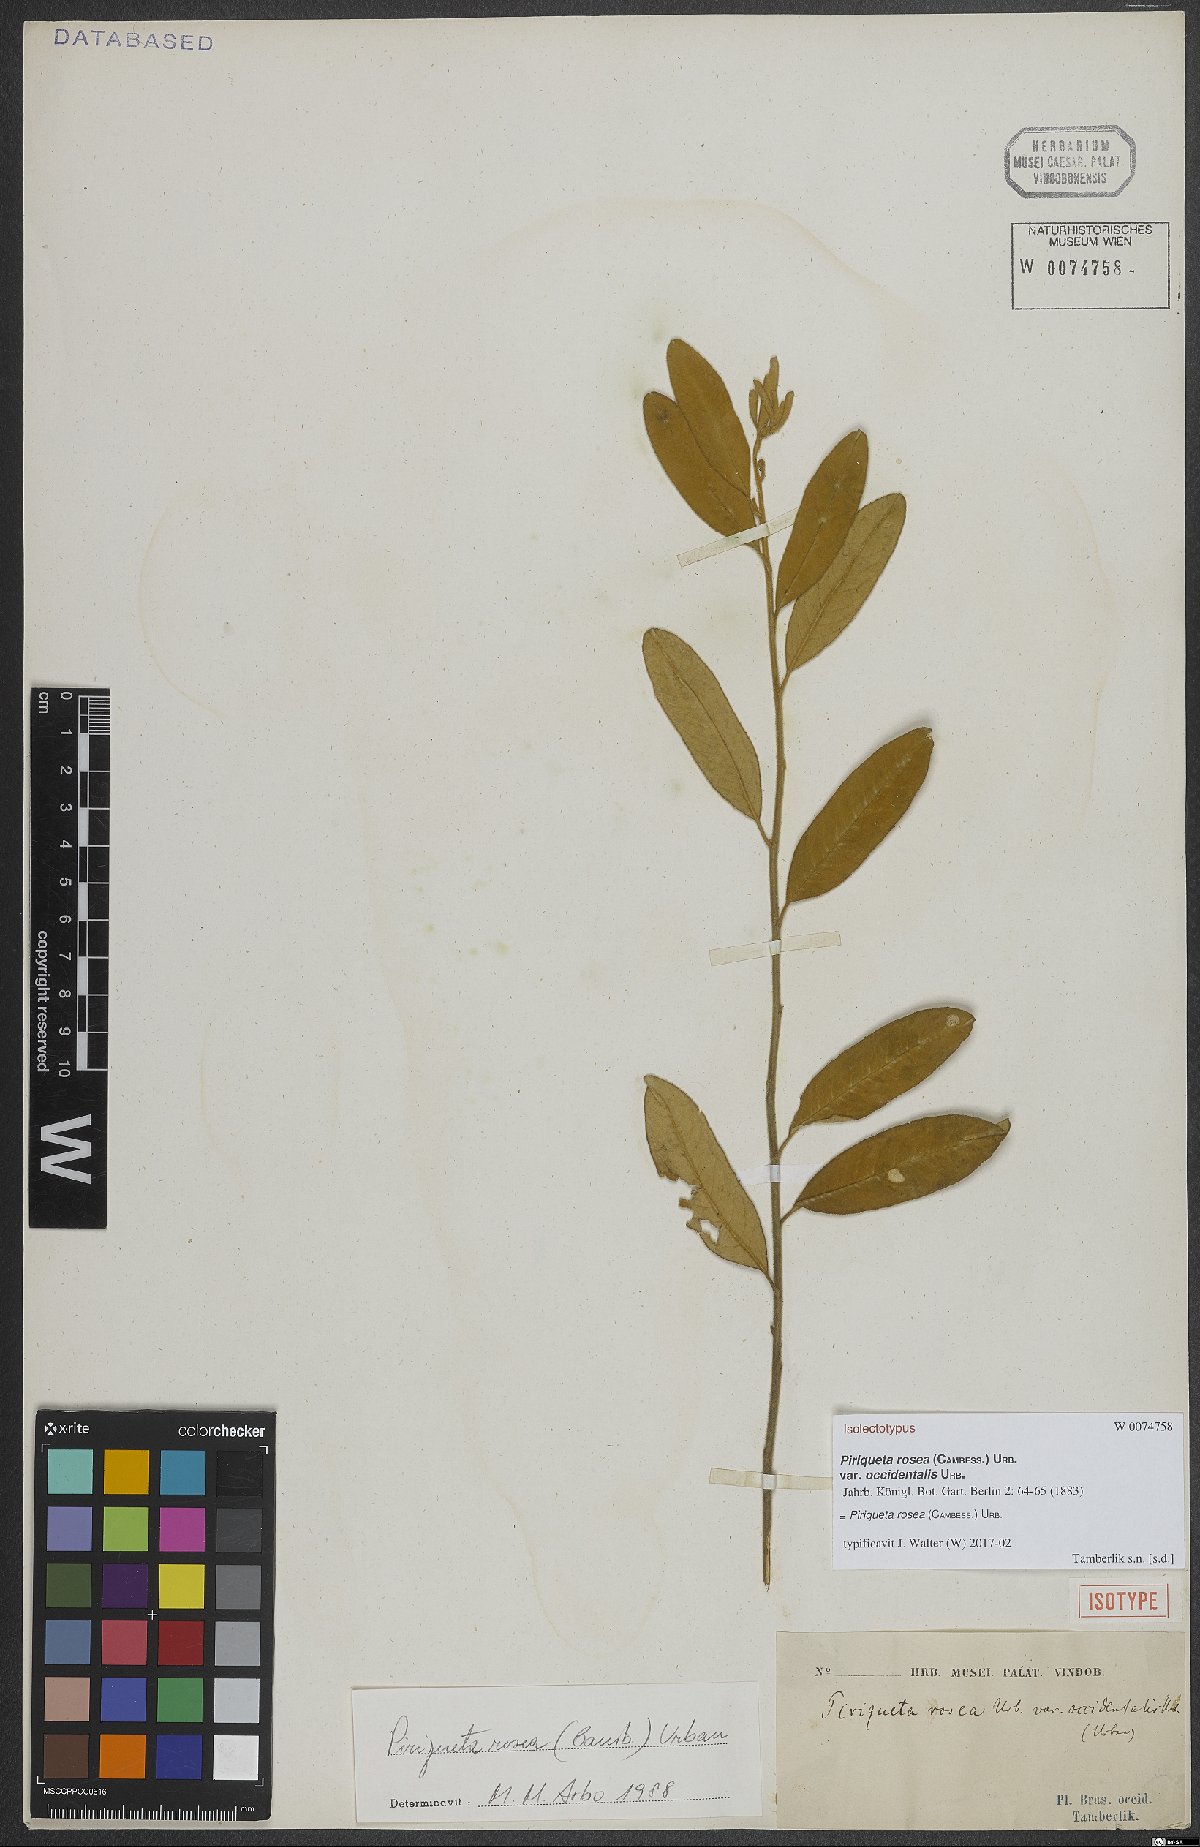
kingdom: Plantae
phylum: Tracheophyta
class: Magnoliopsida
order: Malpighiales
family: Turneraceae
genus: Piriqueta
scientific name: Piriqueta rosea
